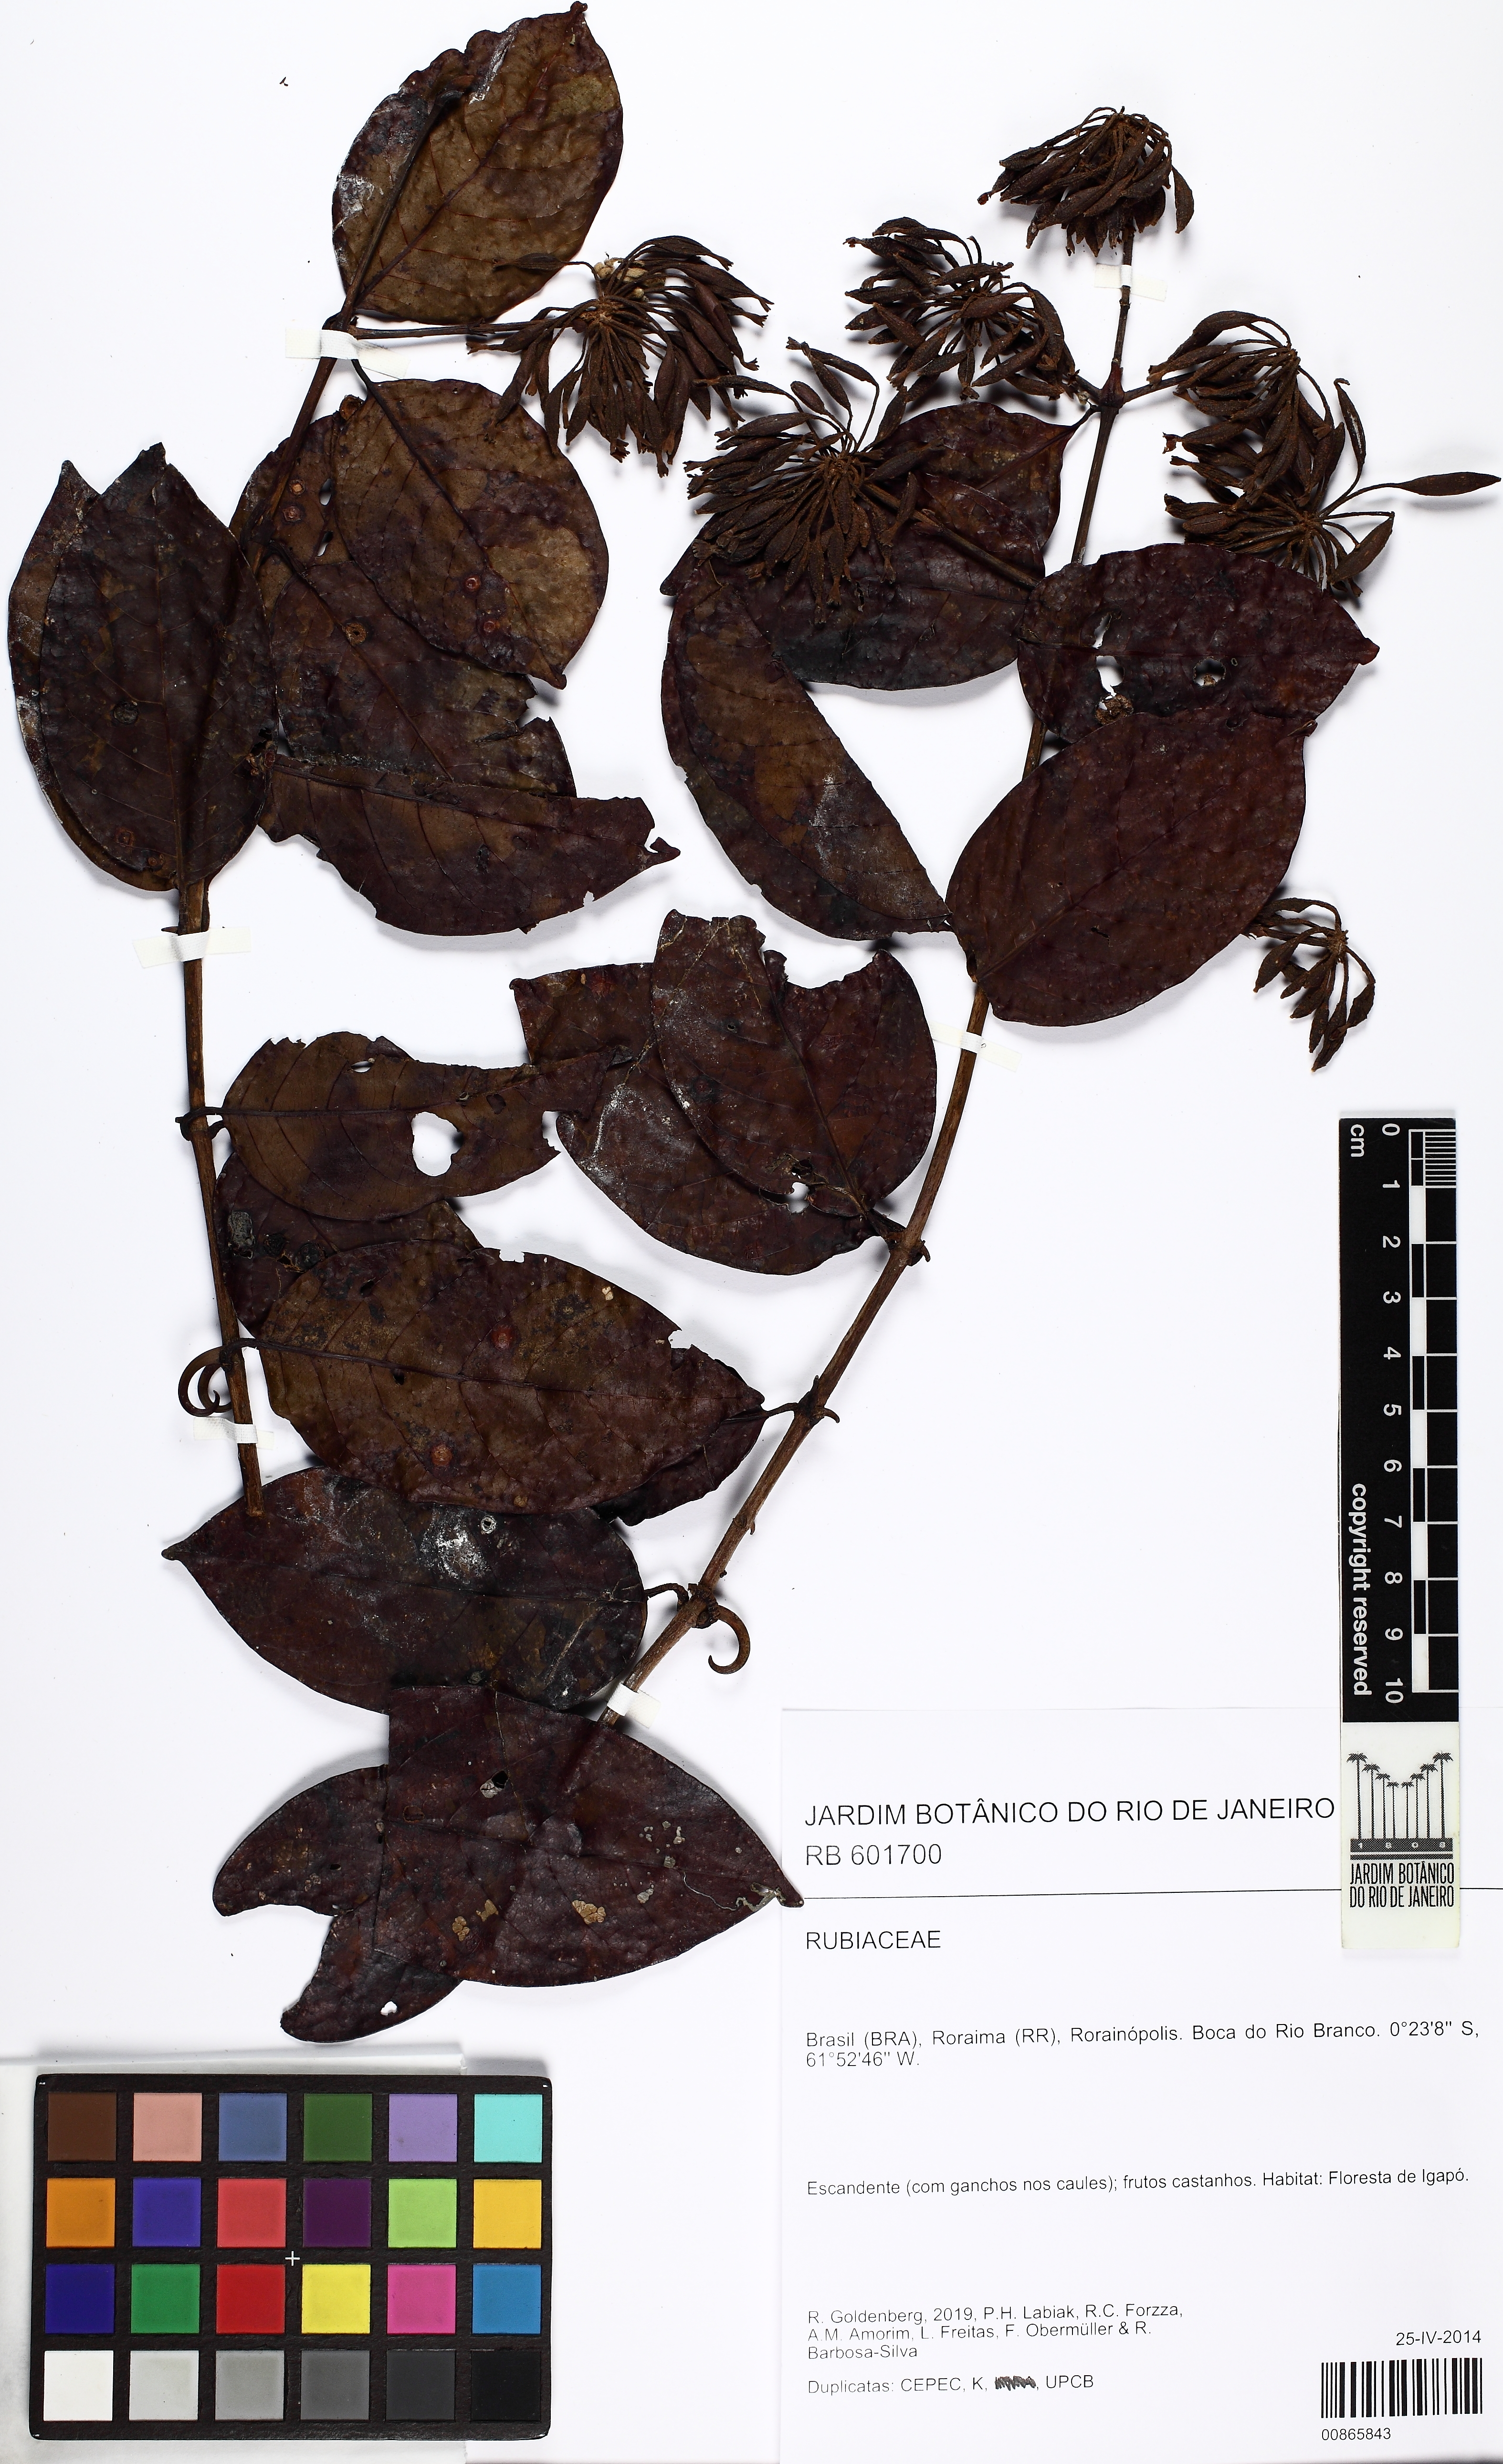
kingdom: Plantae
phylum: Tracheophyta
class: Magnoliopsida
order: Gentianales
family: Rubiaceae
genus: Uncaria
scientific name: Uncaria guianensis
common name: Cat's-claw
